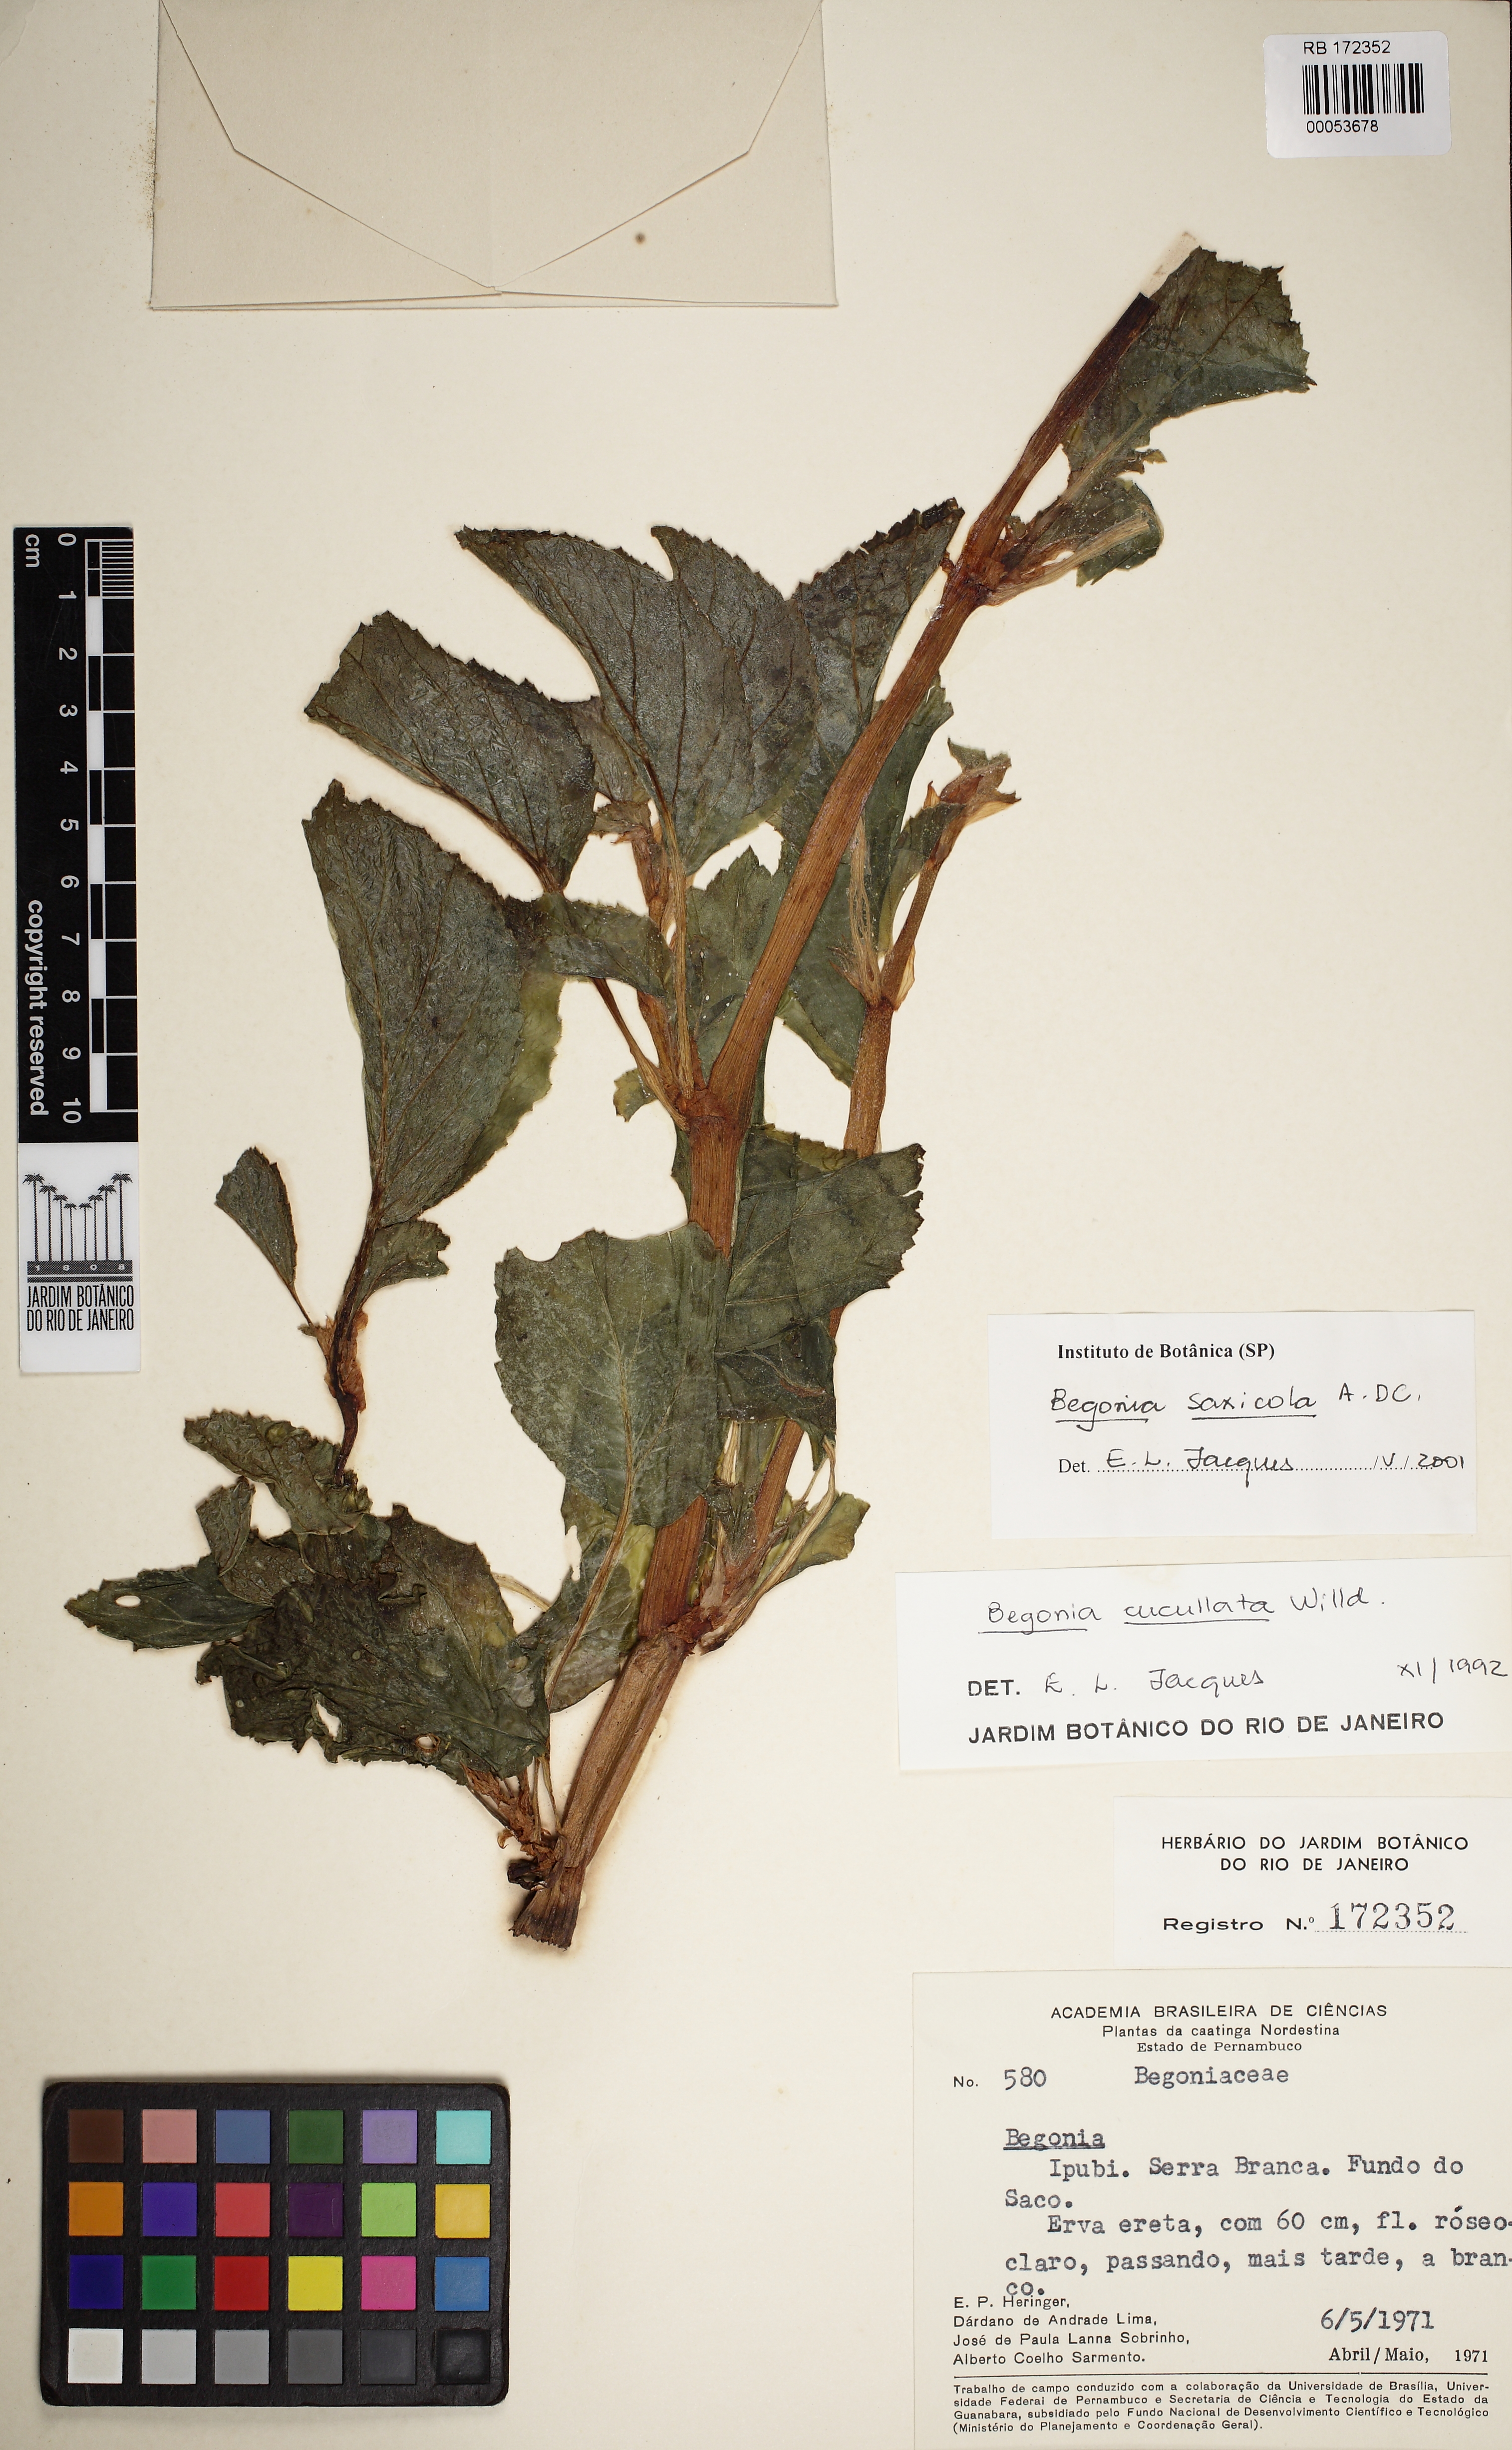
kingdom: Plantae
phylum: Tracheophyta
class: Magnoliopsida
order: Cucurbitales
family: Begoniaceae
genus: Begonia
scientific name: Begonia saxicola
